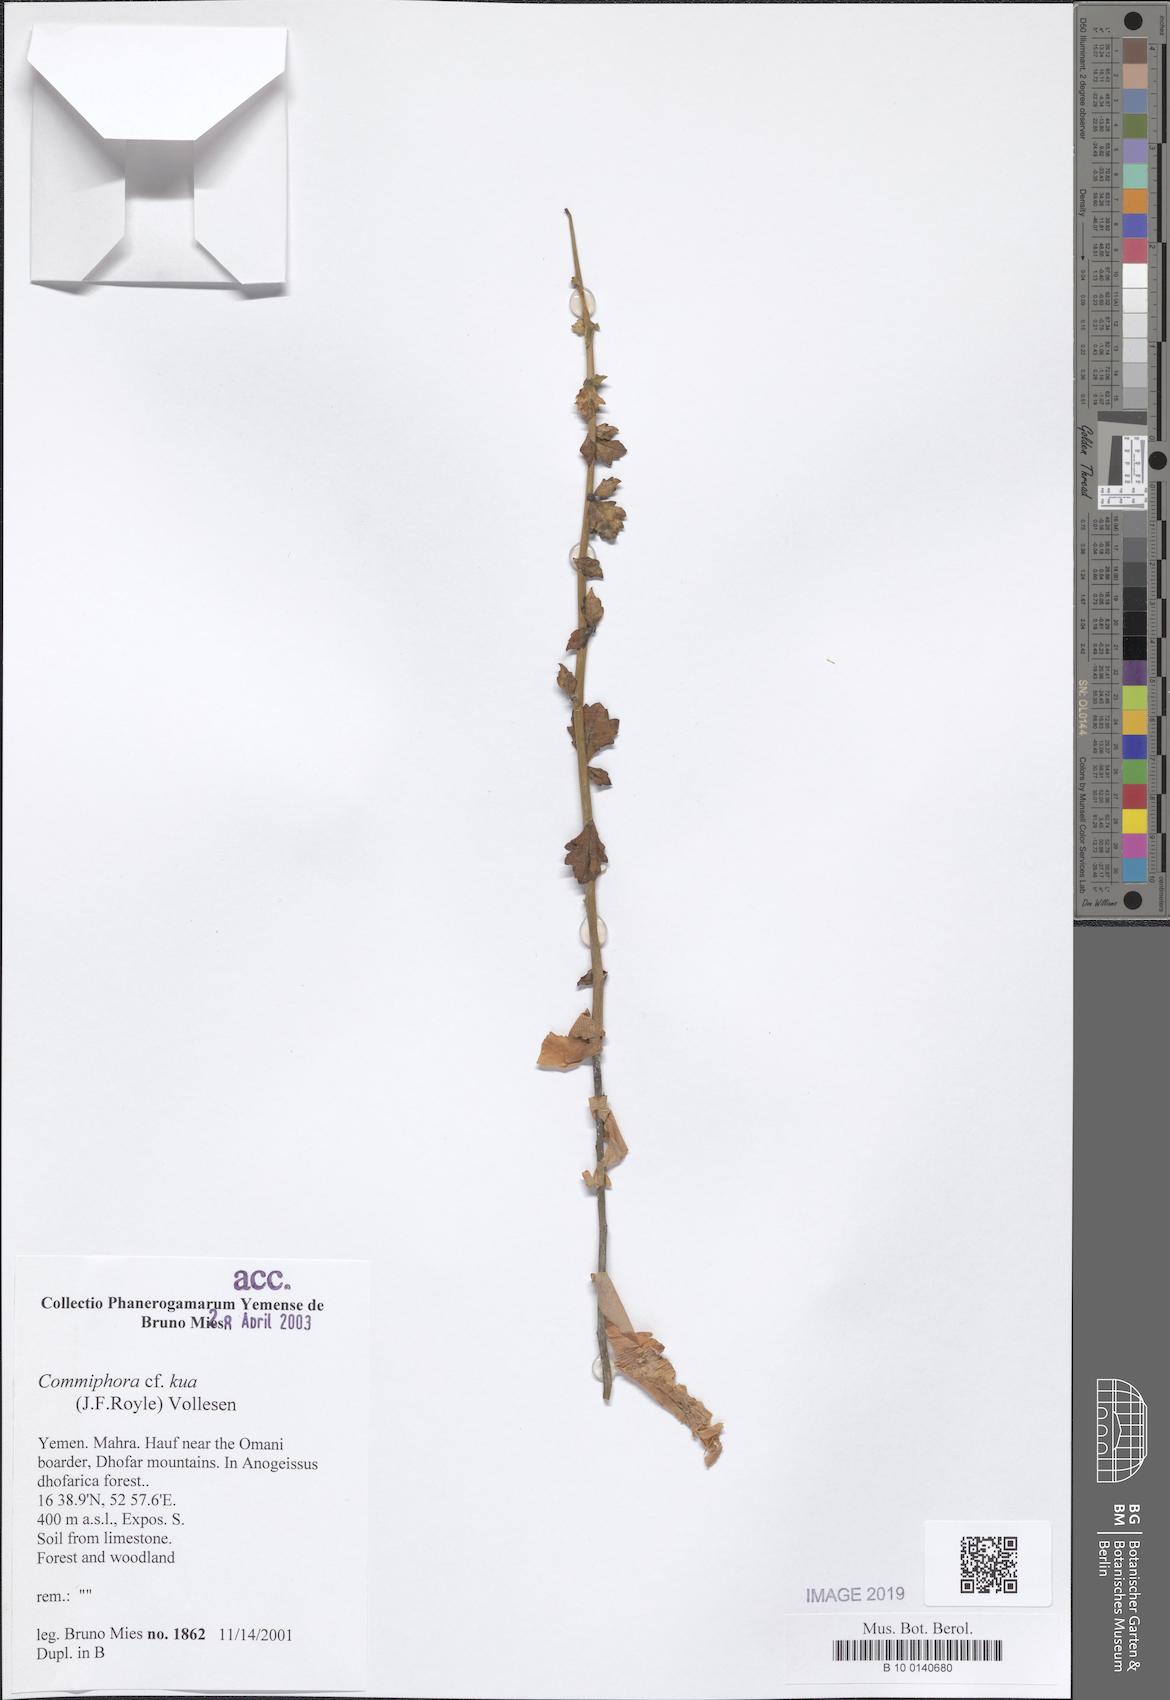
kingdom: Plantae
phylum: Tracheophyta
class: Magnoliopsida
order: Sapindales
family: Burseraceae
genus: Commiphora
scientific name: Commiphora kua
